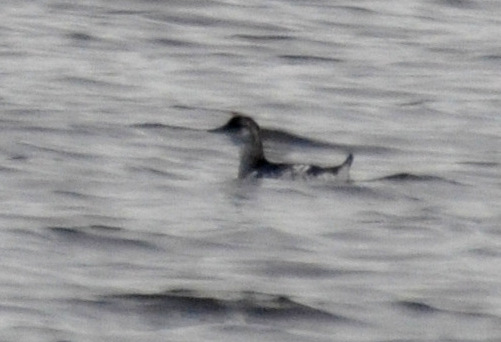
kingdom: Animalia
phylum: Chordata
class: Aves
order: Charadriiformes
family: Alcidae
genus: Cepphus
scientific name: Cepphus grylle
